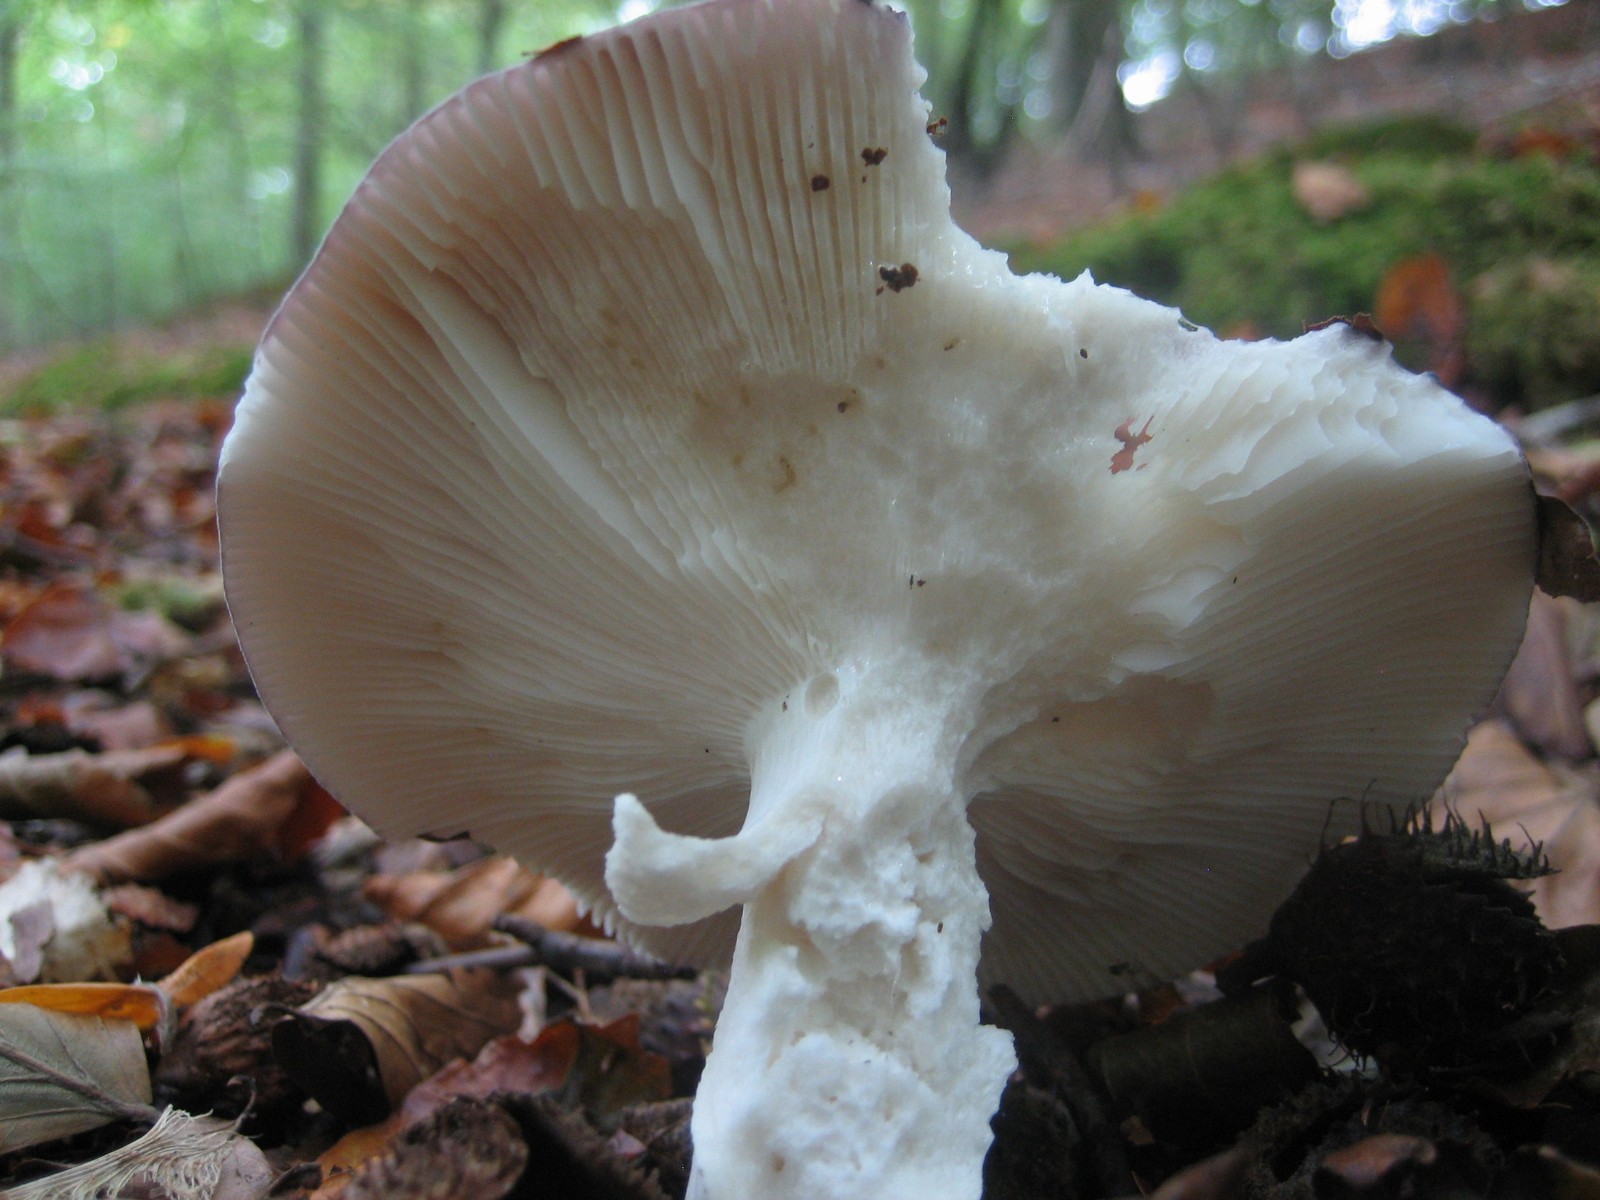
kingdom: Fungi
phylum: Basidiomycota
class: Agaricomycetes
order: Russulales
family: Russulaceae
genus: Russula
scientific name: Russula cyanoxantha
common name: broget skørhat
